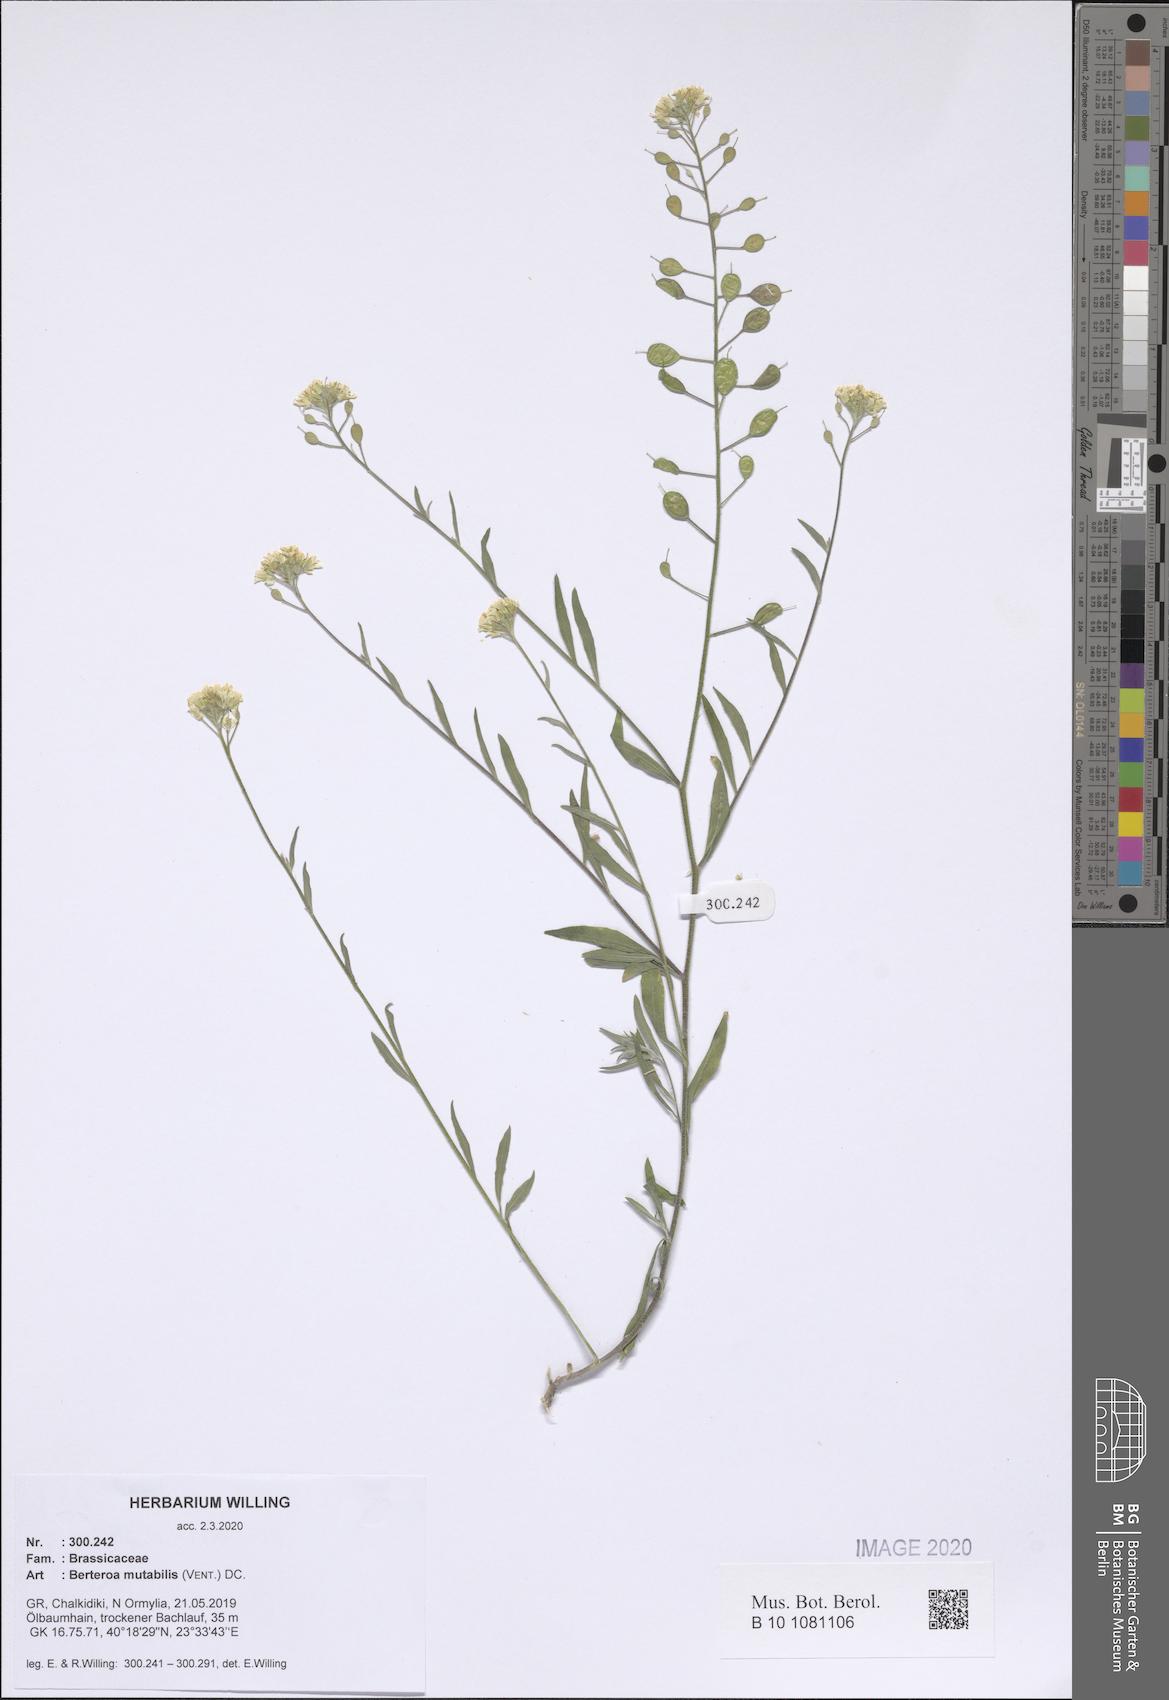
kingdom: Plantae
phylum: Tracheophyta
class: Magnoliopsida
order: Brassicales
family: Brassicaceae
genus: Berteroa
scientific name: Berteroa mutabilis
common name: Roadside false madwort
